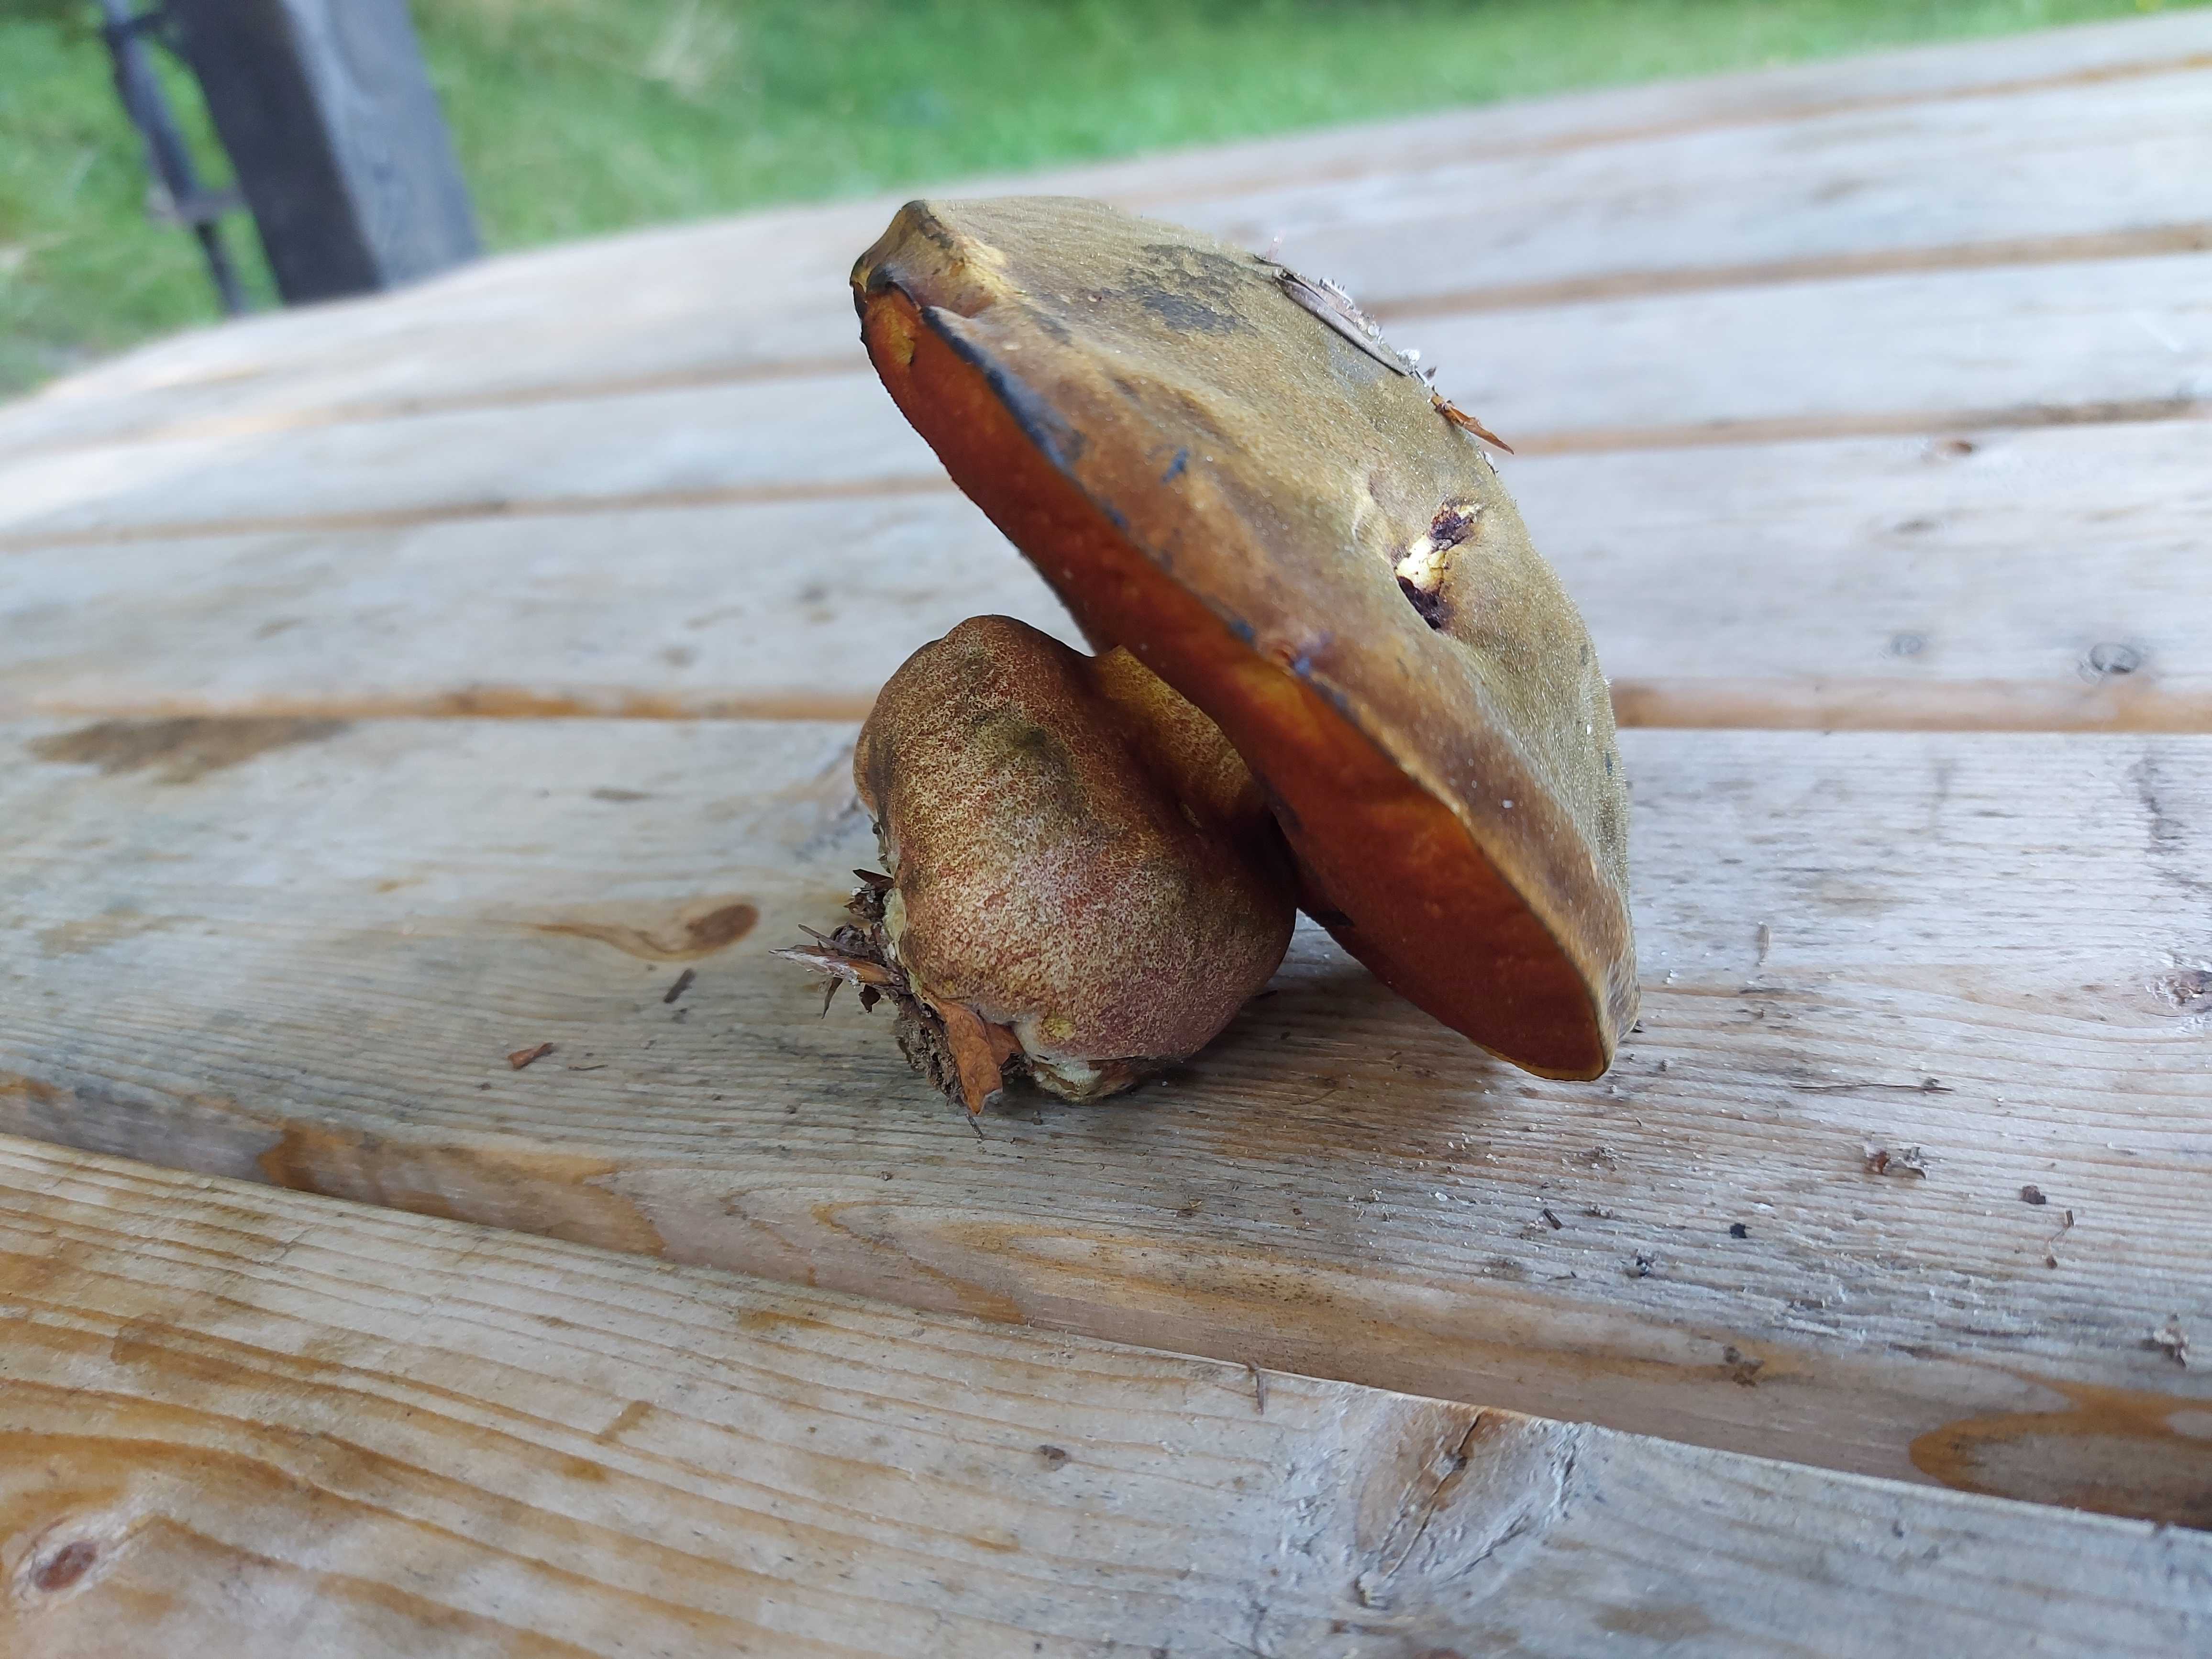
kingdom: Fungi
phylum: Basidiomycota
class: Agaricomycetes
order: Boletales
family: Boletaceae
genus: Neoboletus
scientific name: Neoboletus erythropus
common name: punktstokket indigorørhat
